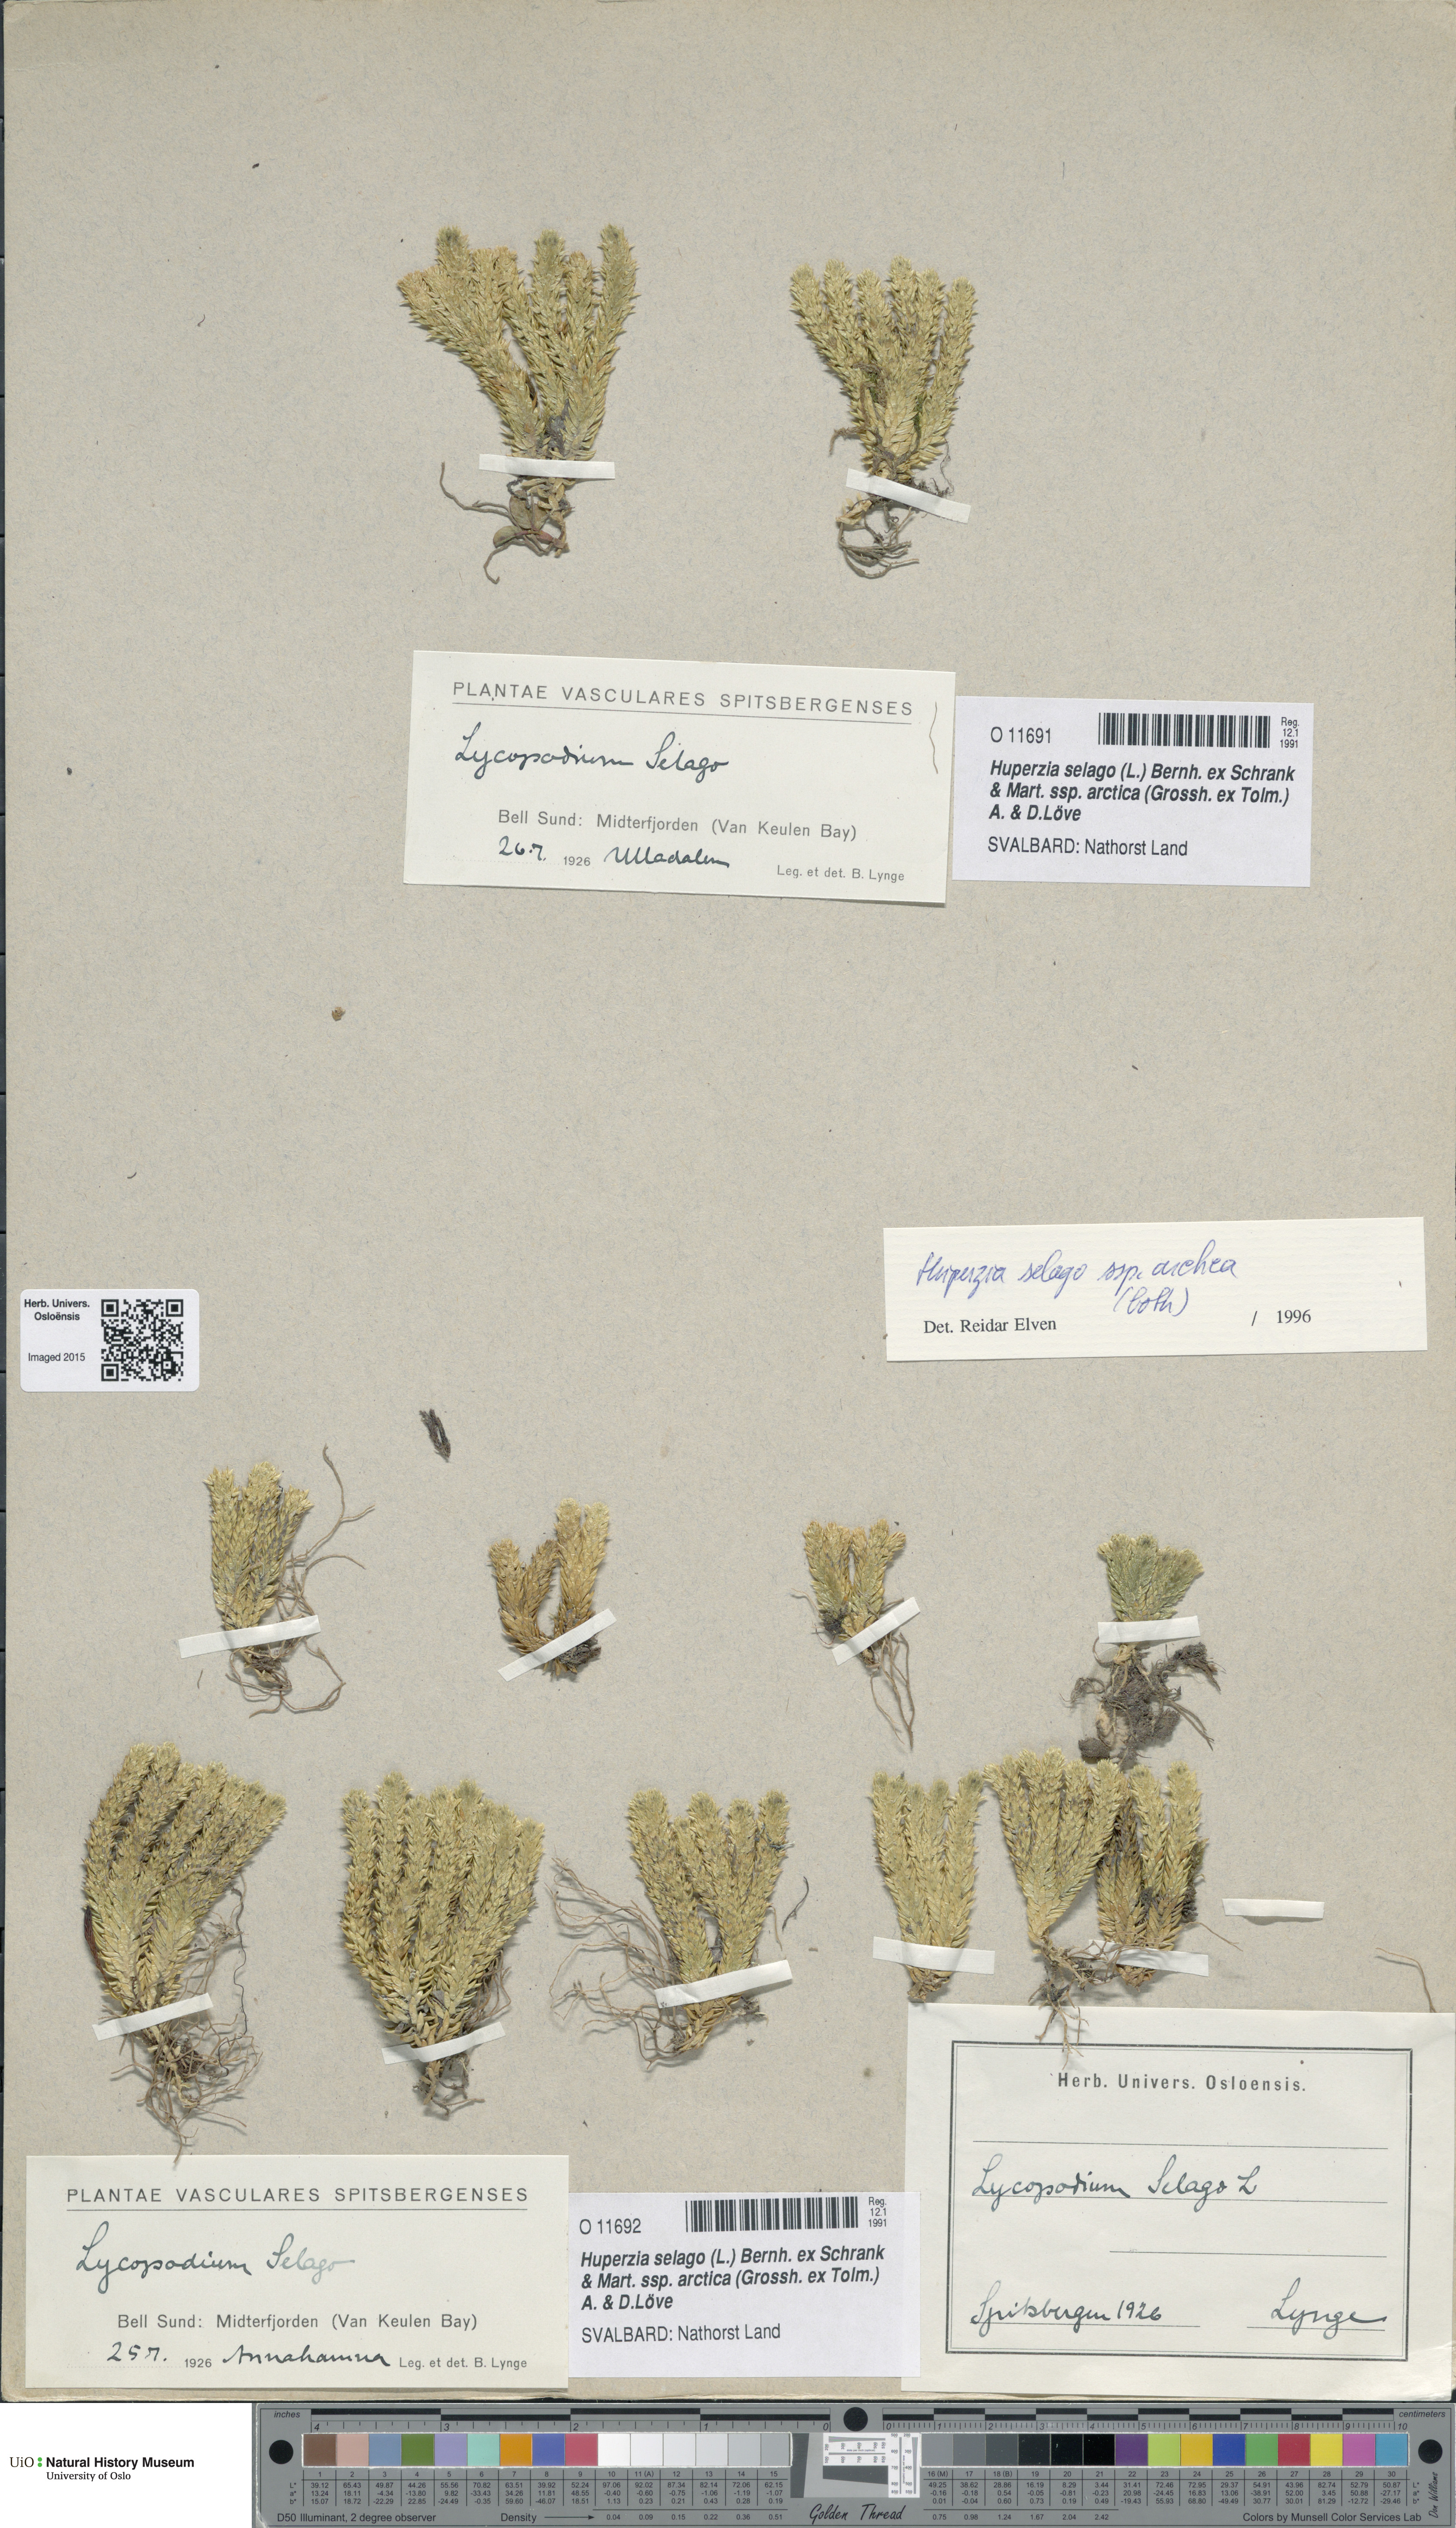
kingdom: Plantae
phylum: Tracheophyta
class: Lycopodiopsida
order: Lycopodiales
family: Lycopodiaceae
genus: Huperzia
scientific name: Huperzia selago
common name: Northern firmoss
